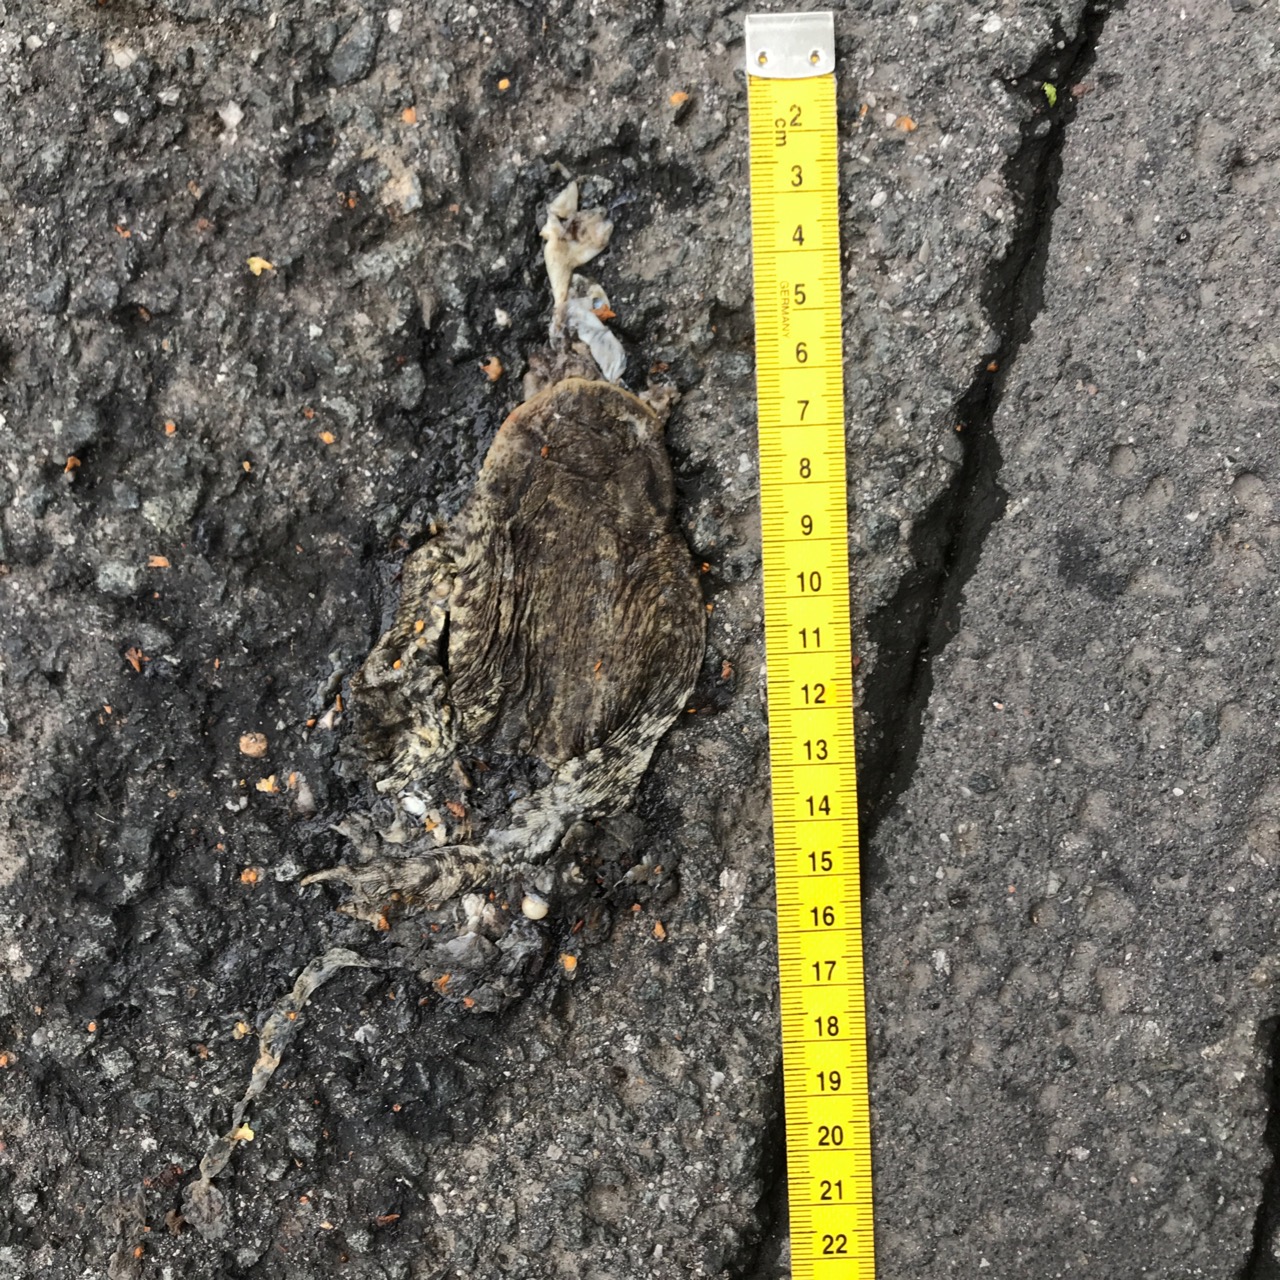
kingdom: Animalia
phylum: Chordata
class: Amphibia
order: Anura
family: Bufonidae
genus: Bufo
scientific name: Bufo bufo
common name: Common toad
